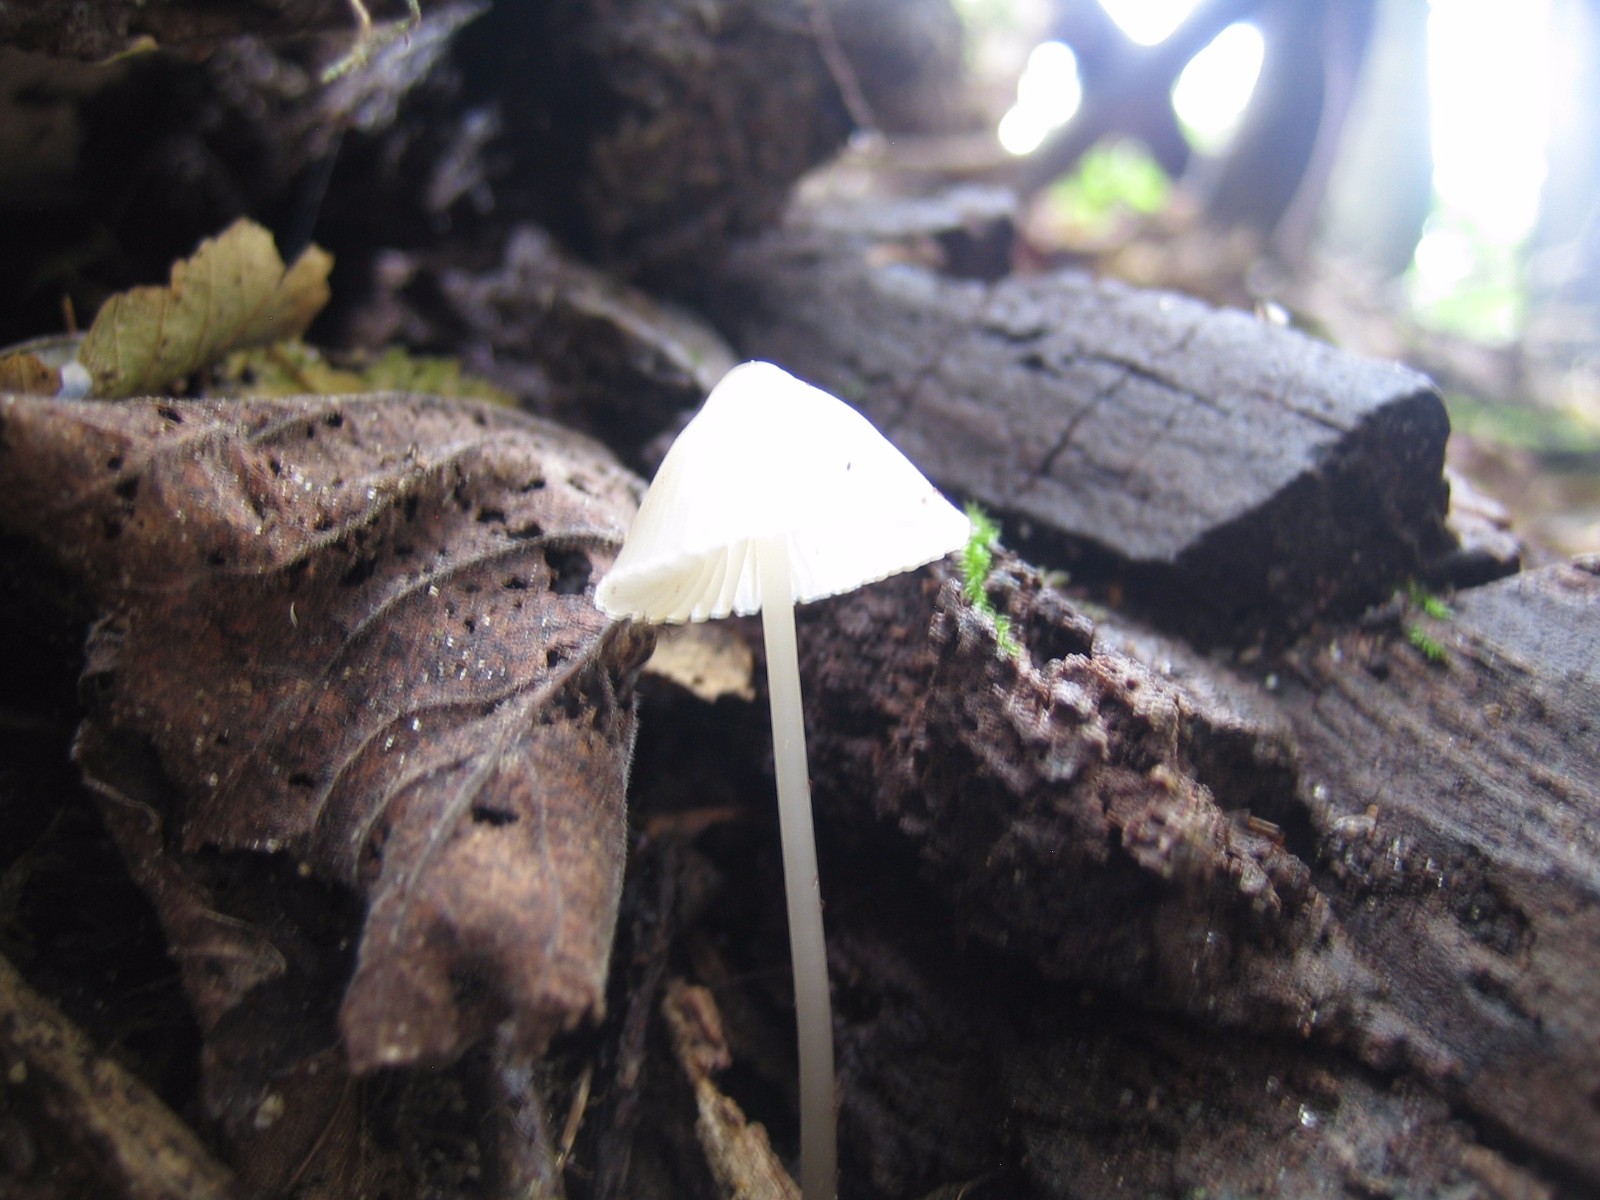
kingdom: Fungi
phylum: Basidiomycota
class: Agaricomycetes
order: Agaricales
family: Mycenaceae
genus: Mycena
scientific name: Mycena
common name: huesvamp
